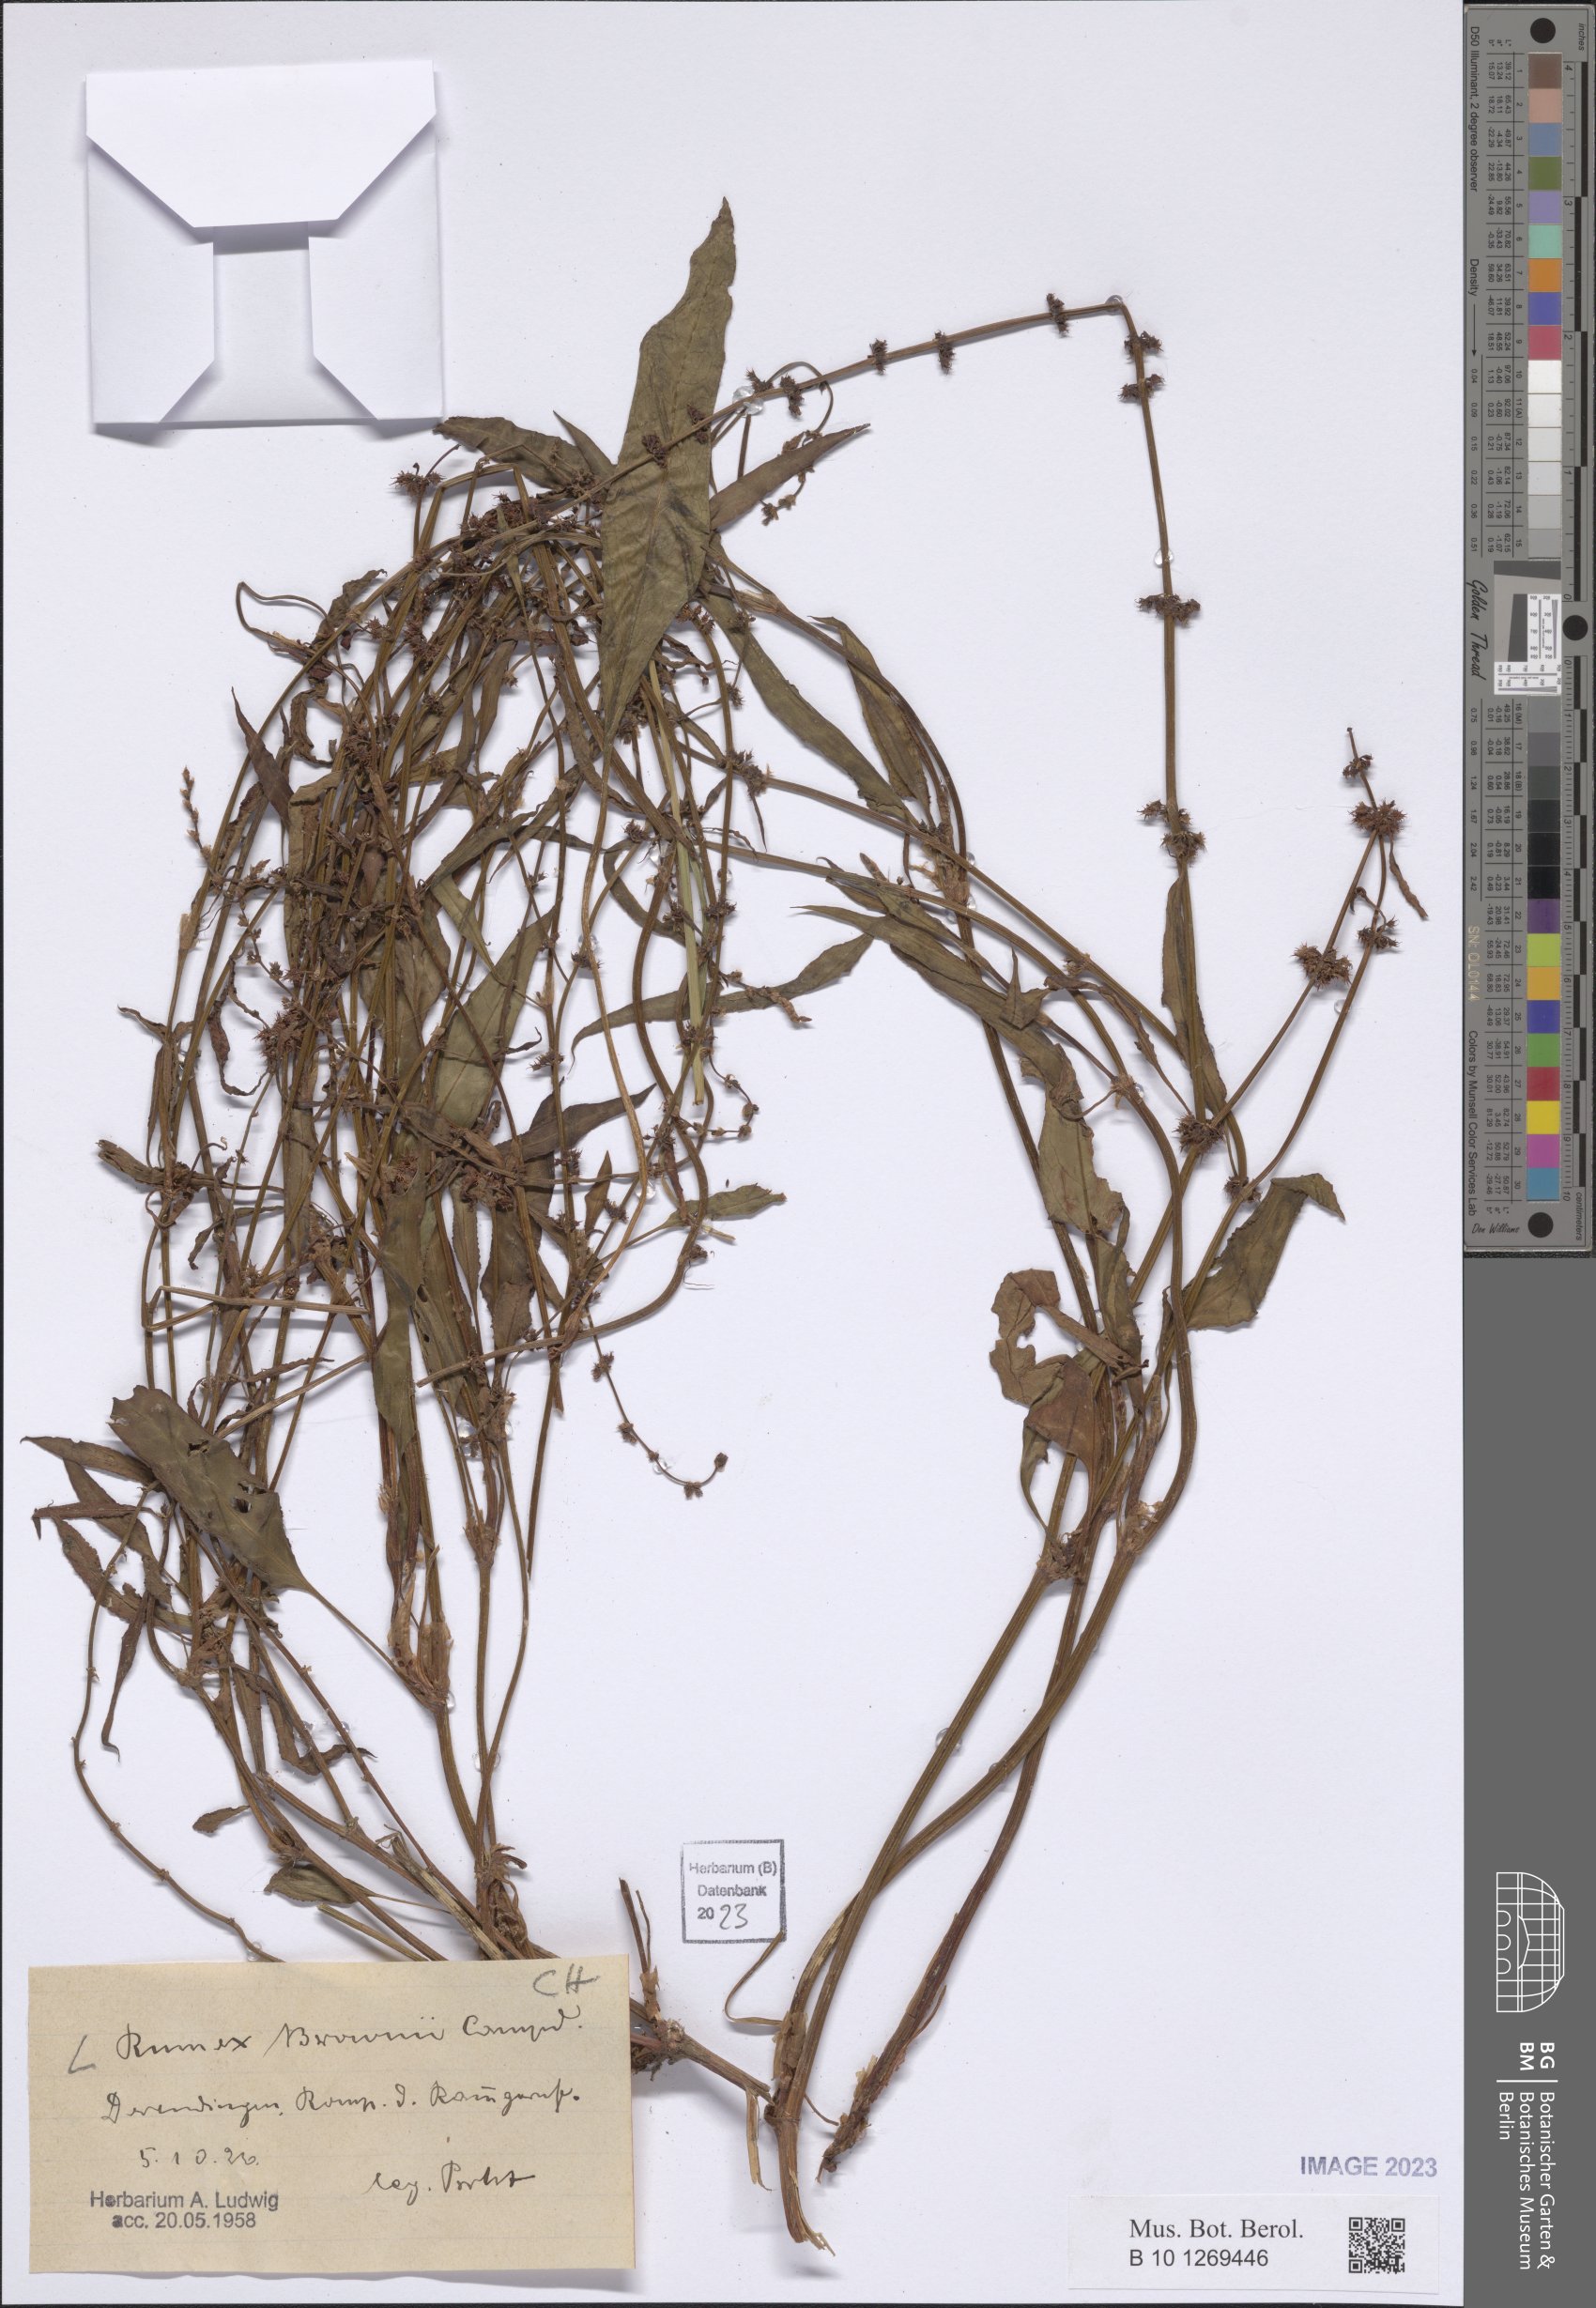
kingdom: Plantae
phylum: Tracheophyta
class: Magnoliopsida
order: Caryophyllales
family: Polygonaceae
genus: Rumex
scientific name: Rumex brownii
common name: Hooked dock
